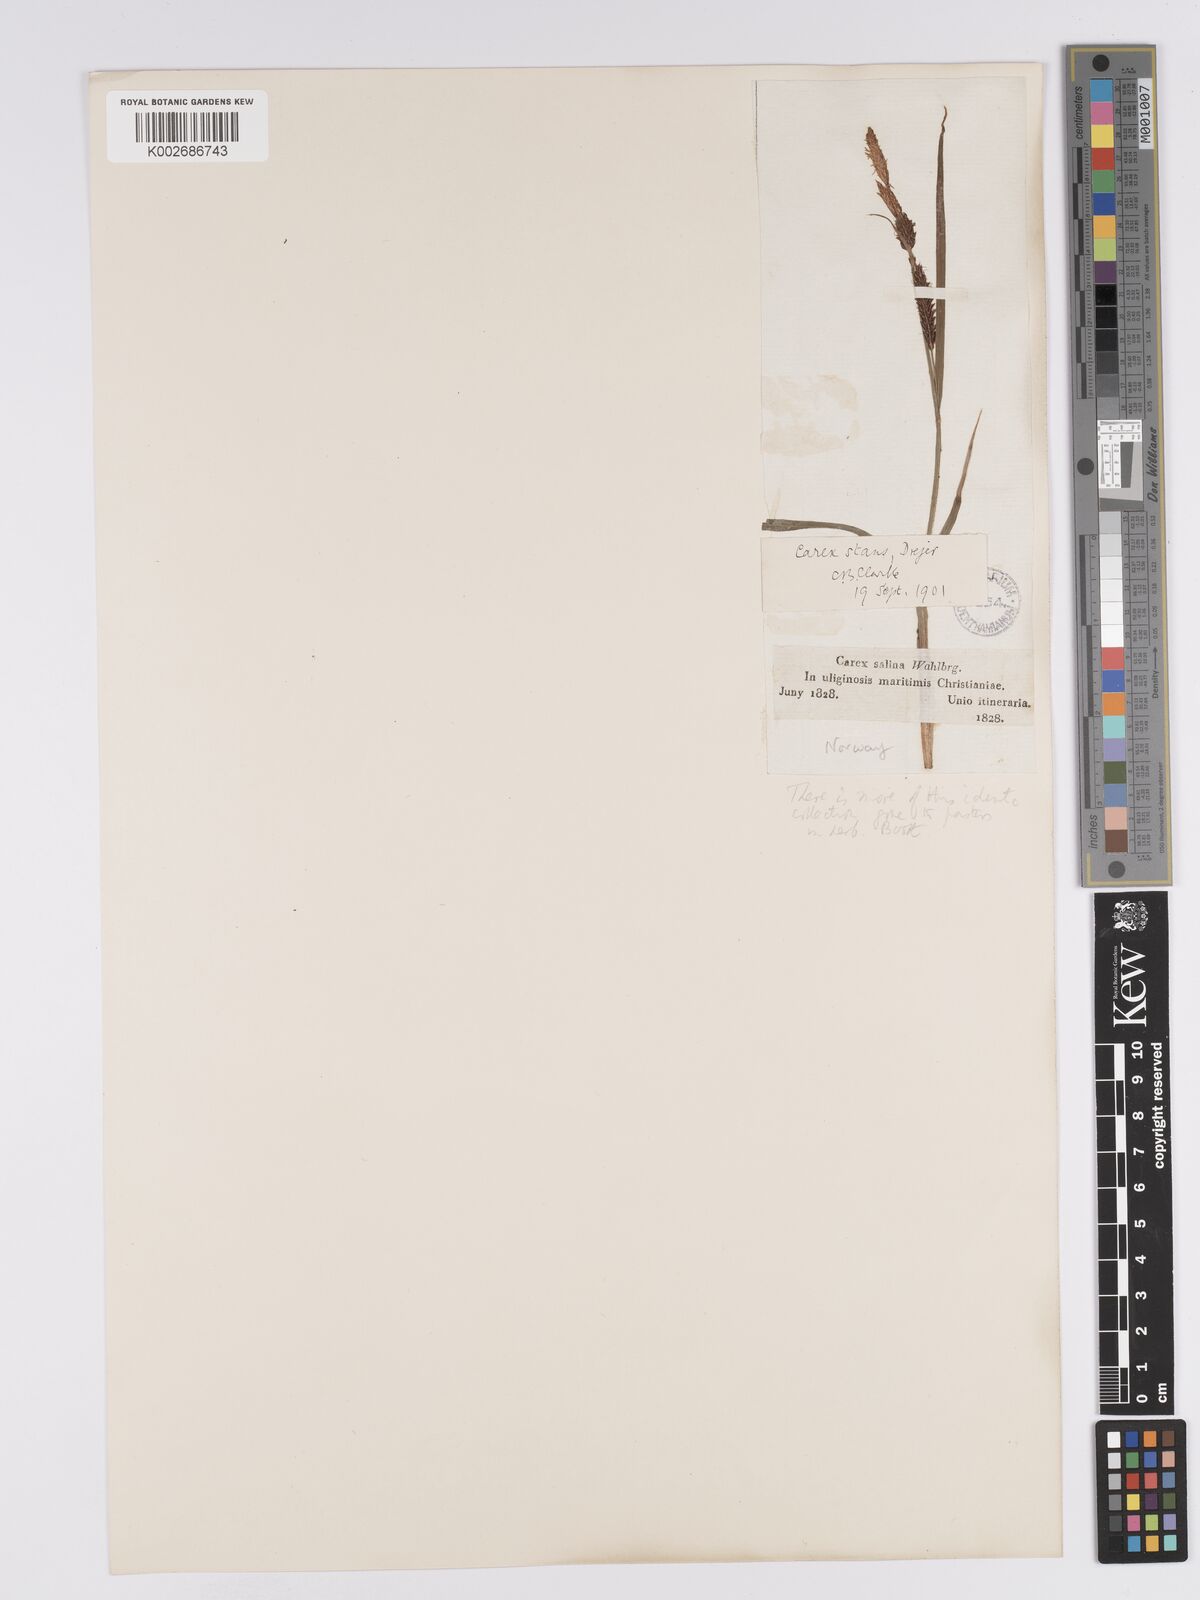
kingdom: Plantae
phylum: Tracheophyta
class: Liliopsida
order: Poales
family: Cyperaceae
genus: Carex
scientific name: Carex aquatilis
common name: Water sedge
